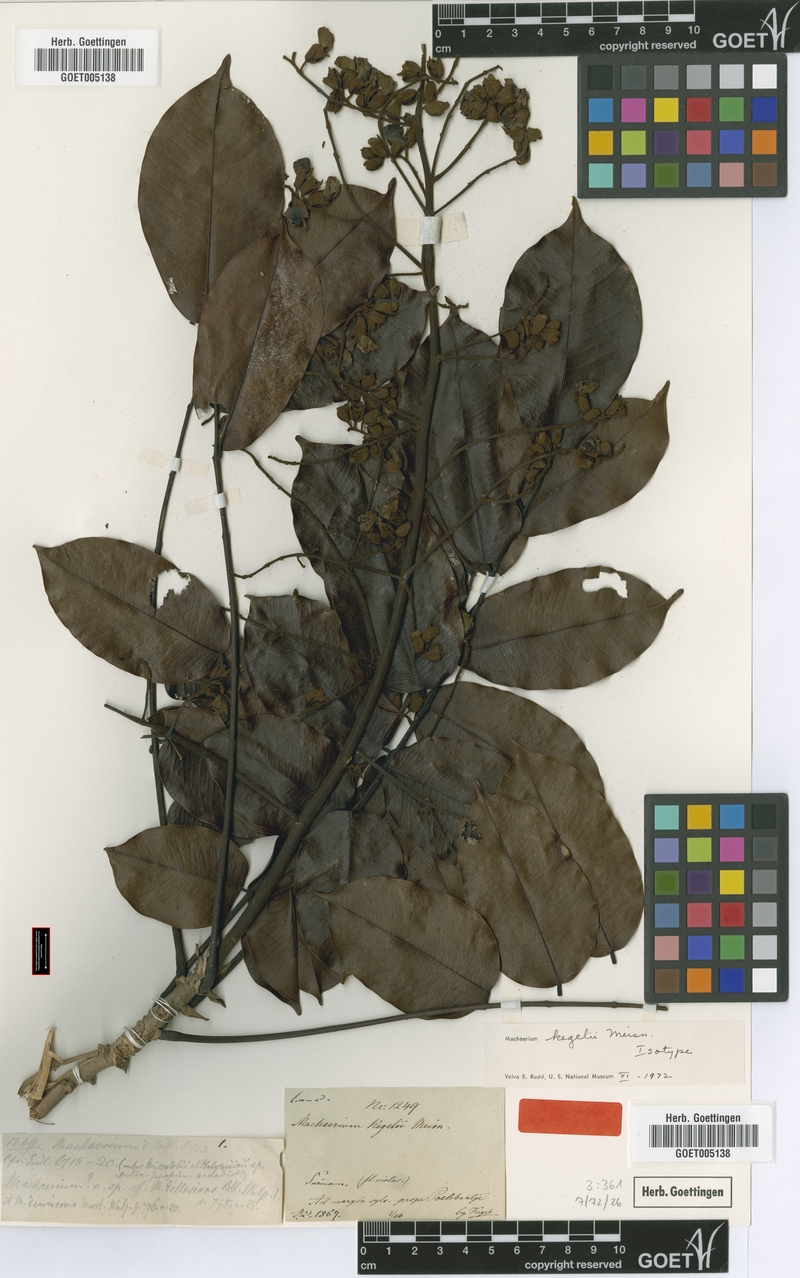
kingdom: Plantae
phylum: Tracheophyta
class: Magnoliopsida
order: Fabales
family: Fabaceae
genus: Machaerium
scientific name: Machaerium kegelii
